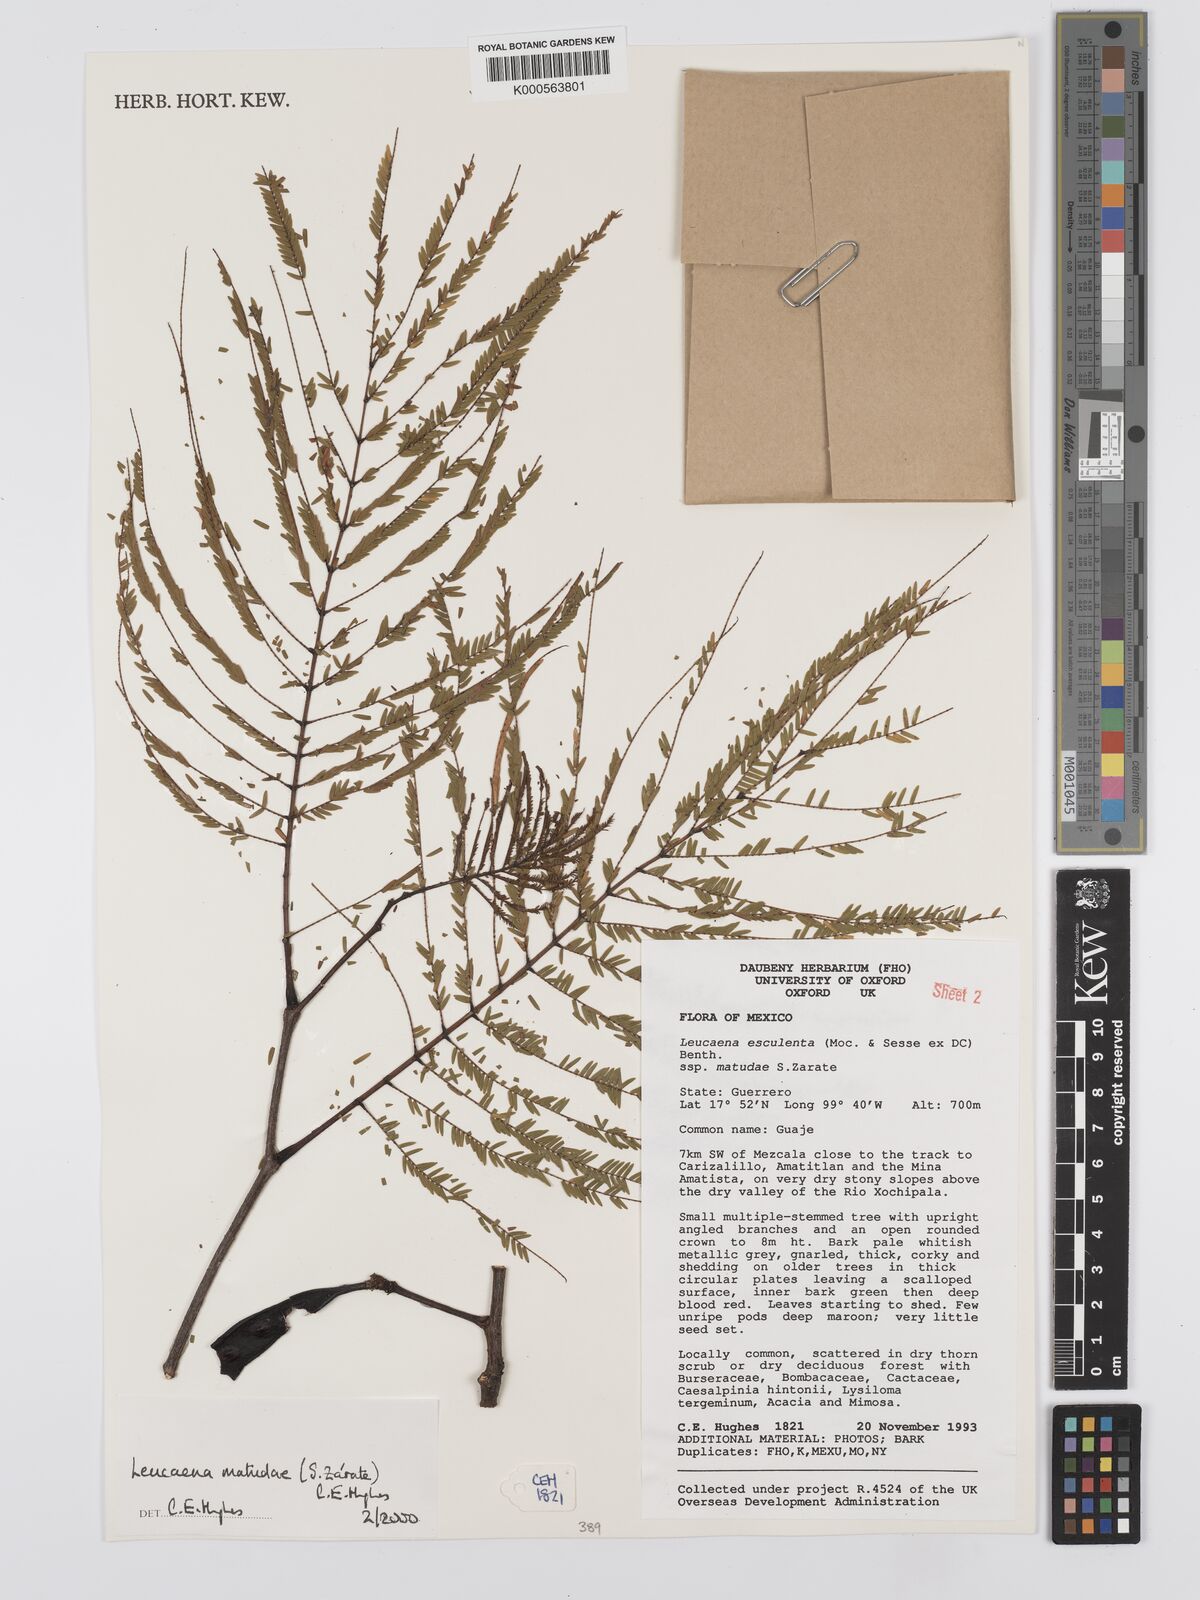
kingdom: Plantae
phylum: Tracheophyta
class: Magnoliopsida
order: Fabales
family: Fabaceae
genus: Leucaena
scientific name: Leucaena
